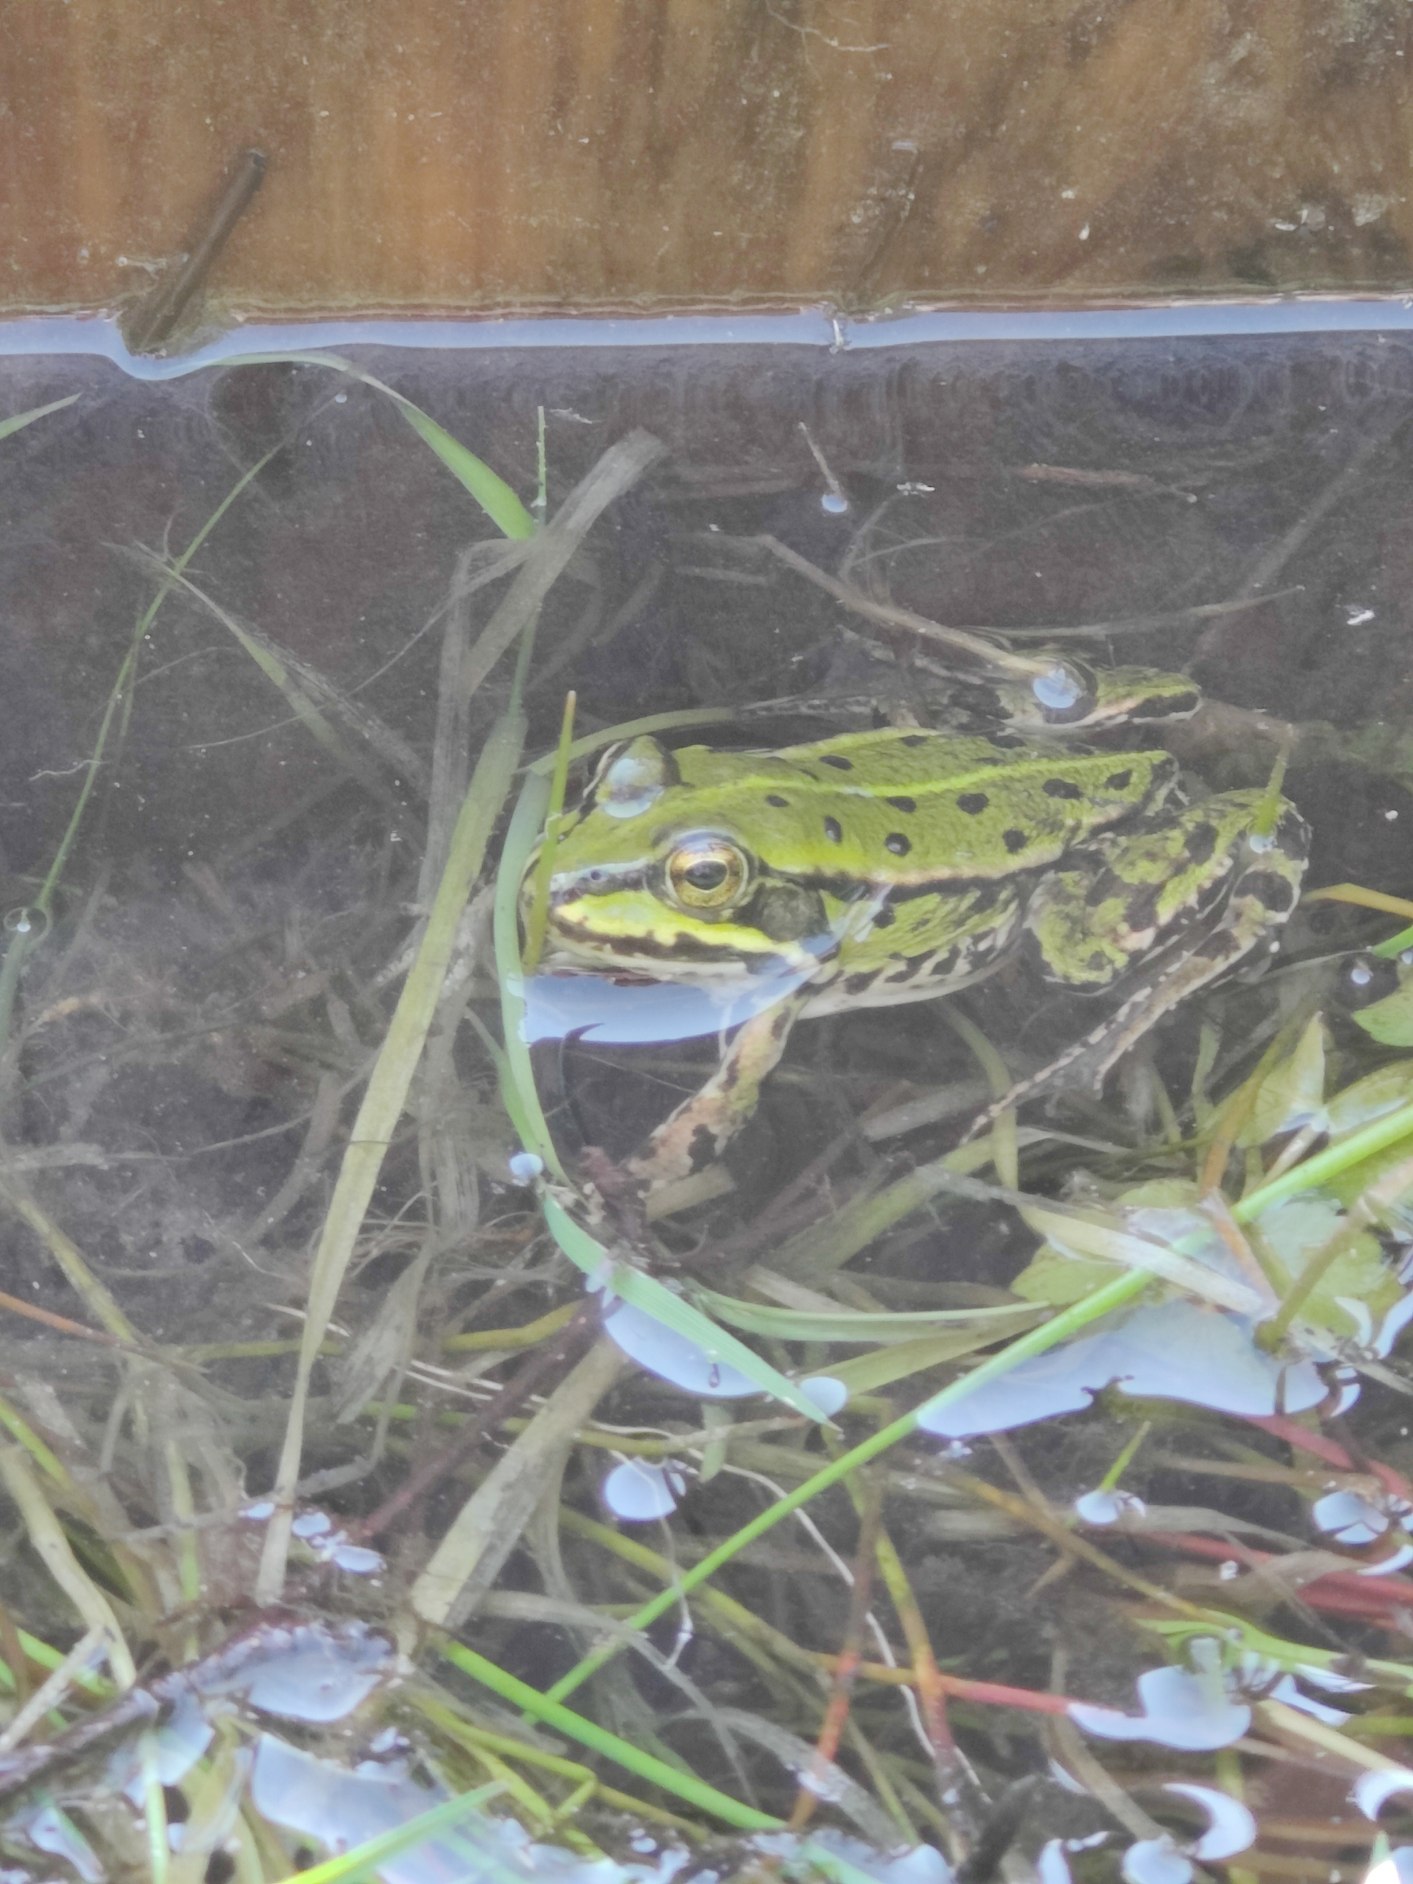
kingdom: Animalia
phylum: Chordata
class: Amphibia
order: Anura
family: Ranidae
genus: Pelophylax
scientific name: Pelophylax lessonae
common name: Grøn frø
